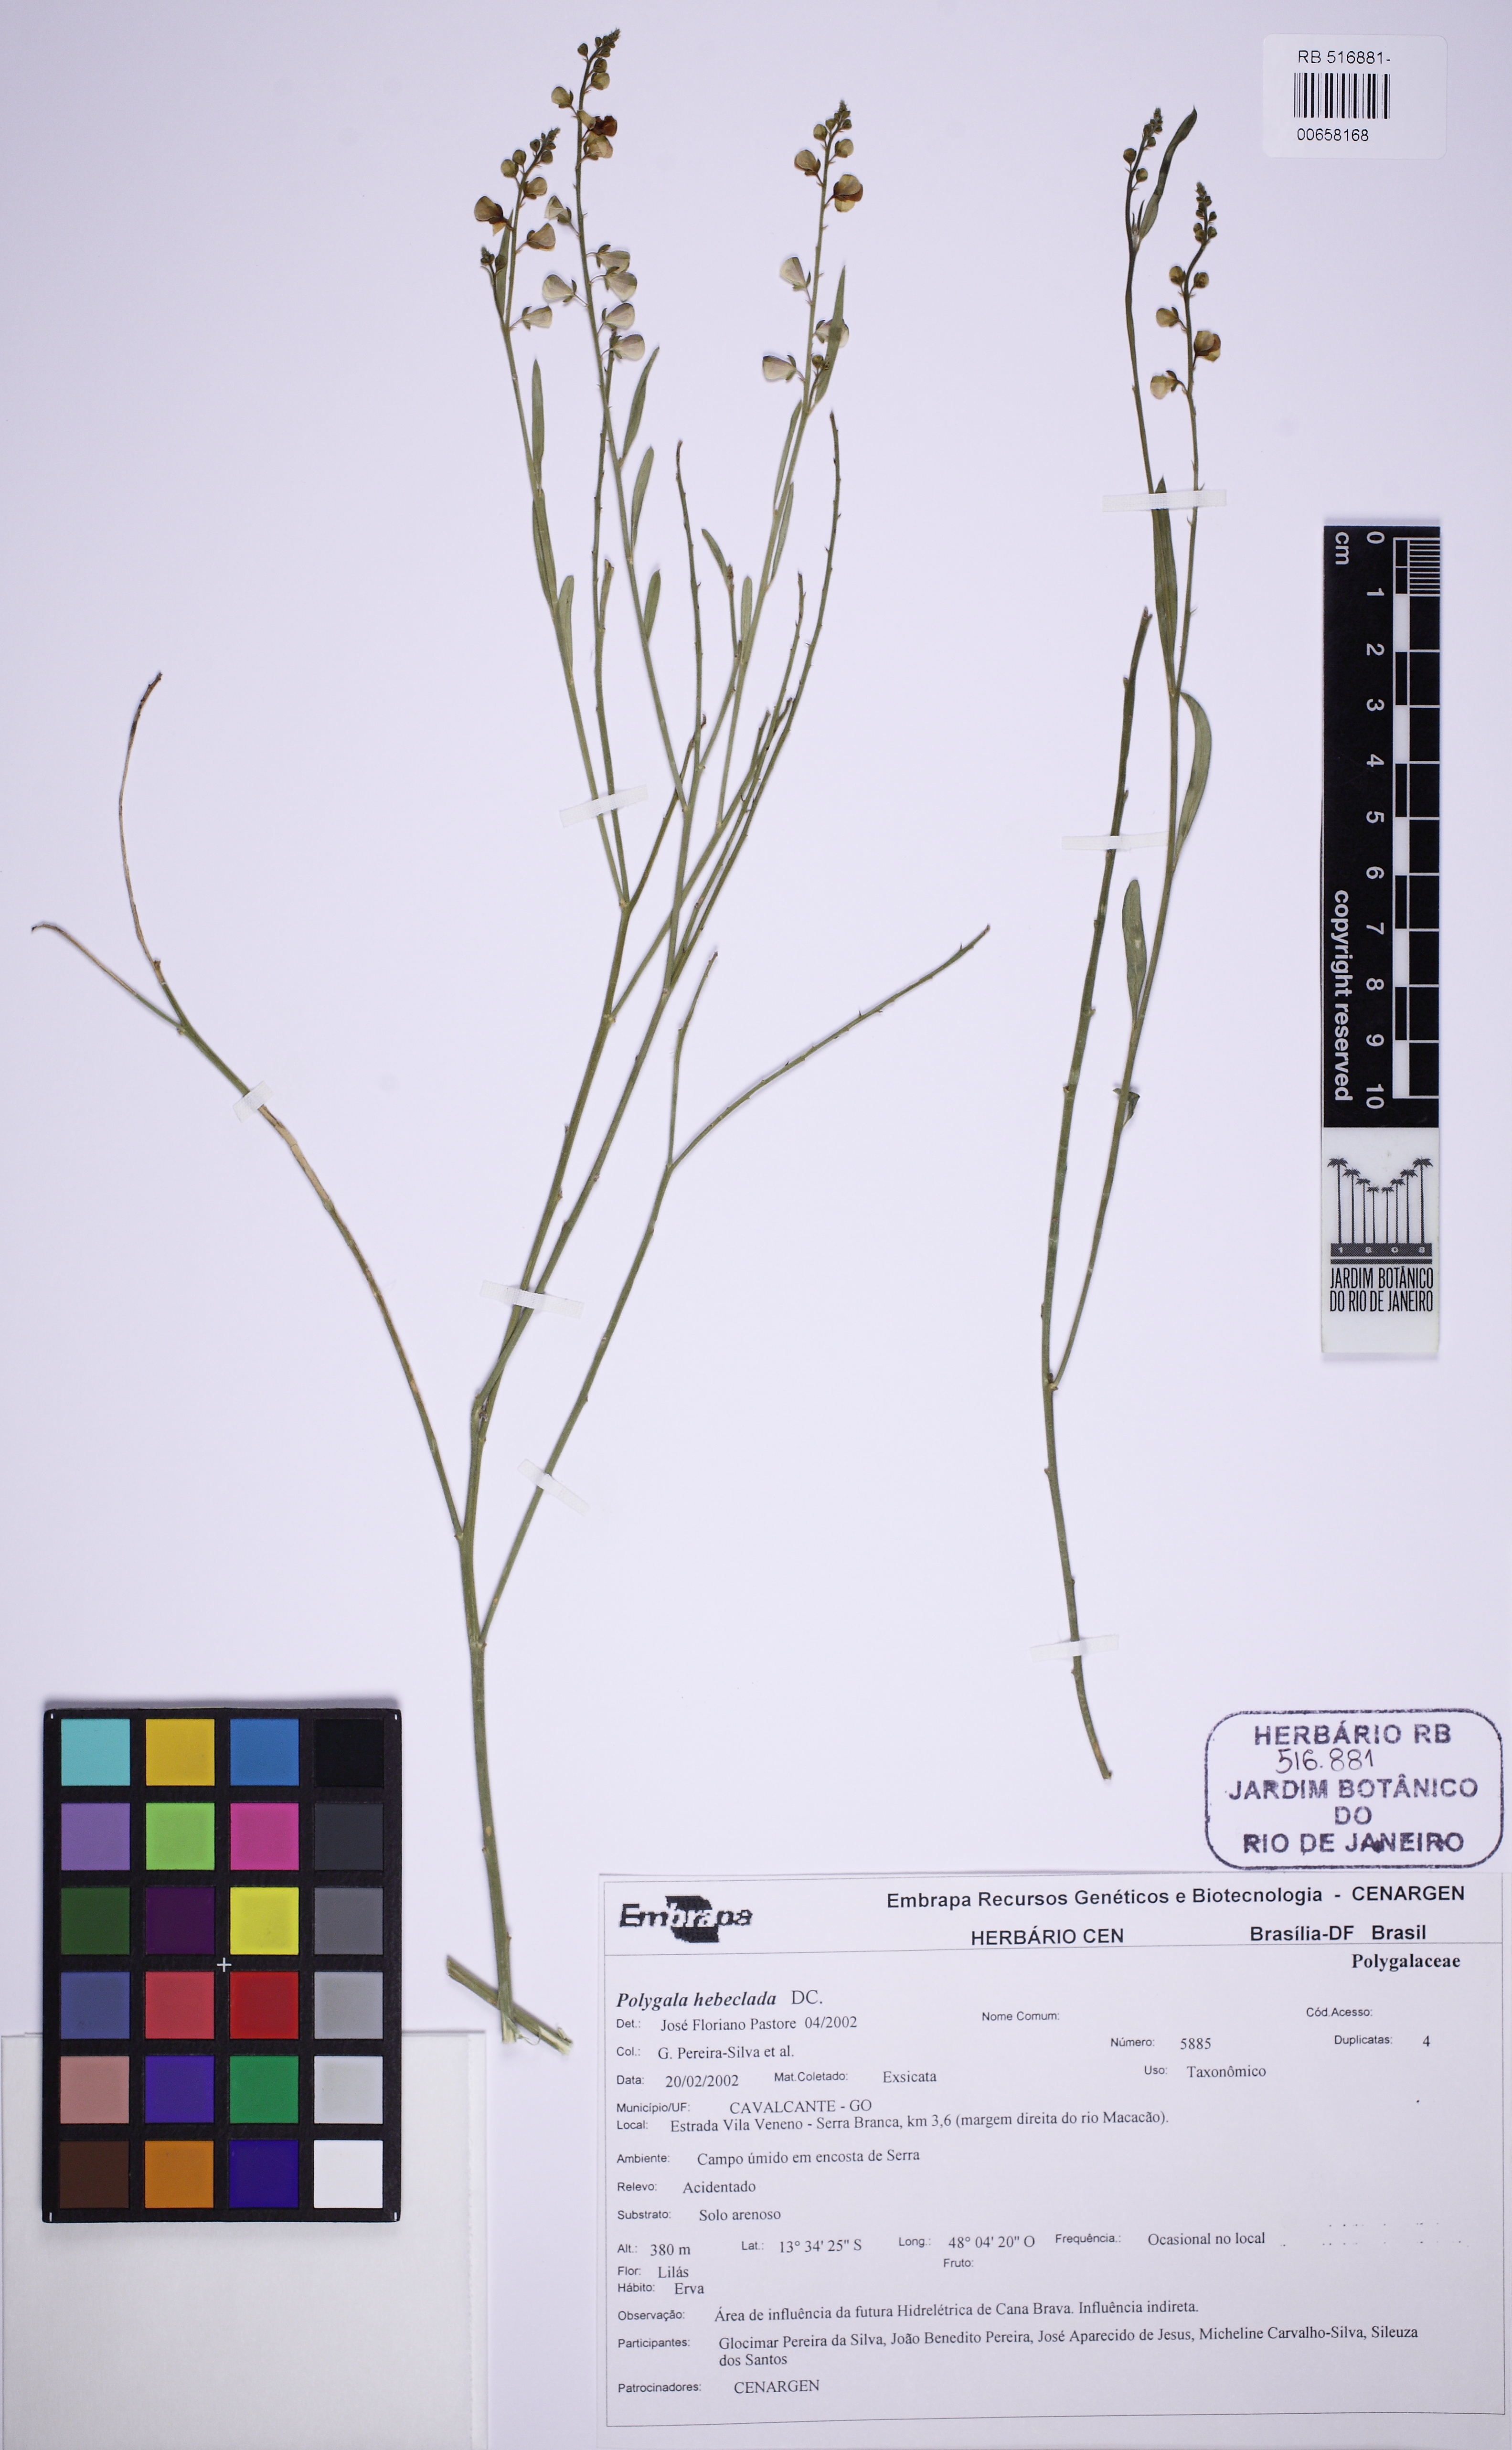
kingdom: Plantae
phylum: Tracheophyta
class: Magnoliopsida
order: Fabales
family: Polygalaceae
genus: Asemeia
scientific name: Asemeia hebeclada
